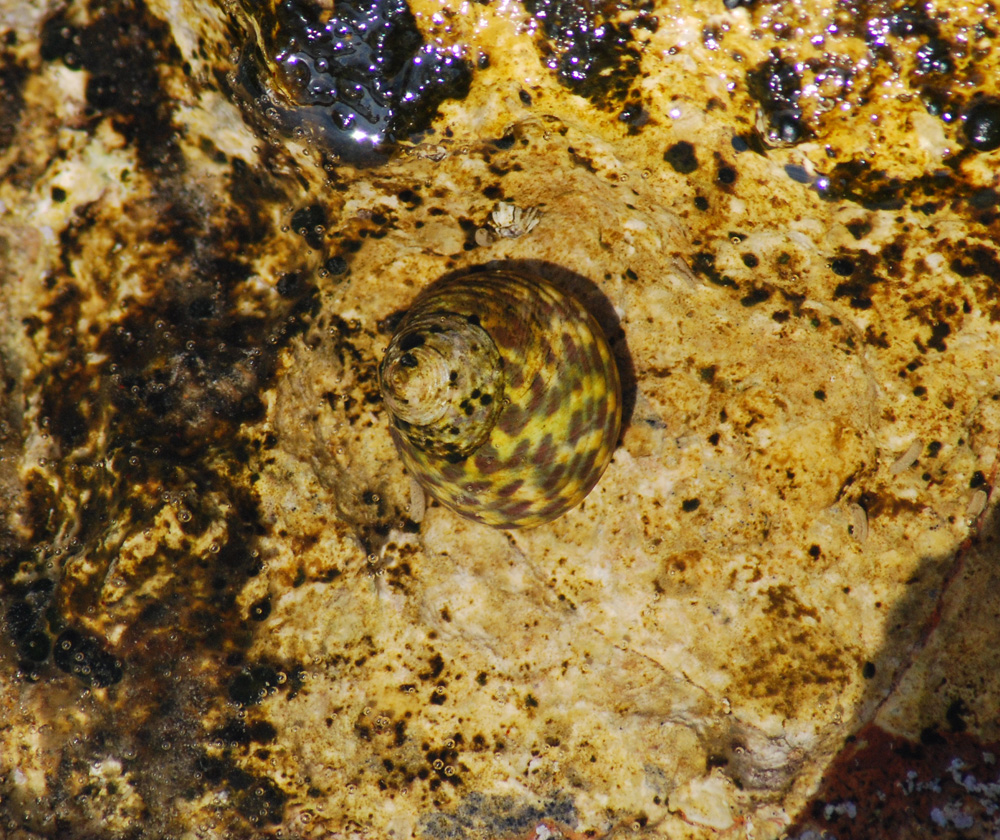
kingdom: Animalia
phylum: Mollusca
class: Gastropoda
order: Trochida
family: Trochidae
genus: Phorcus
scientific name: Phorcus turbinatus
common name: Turbinate monodont
